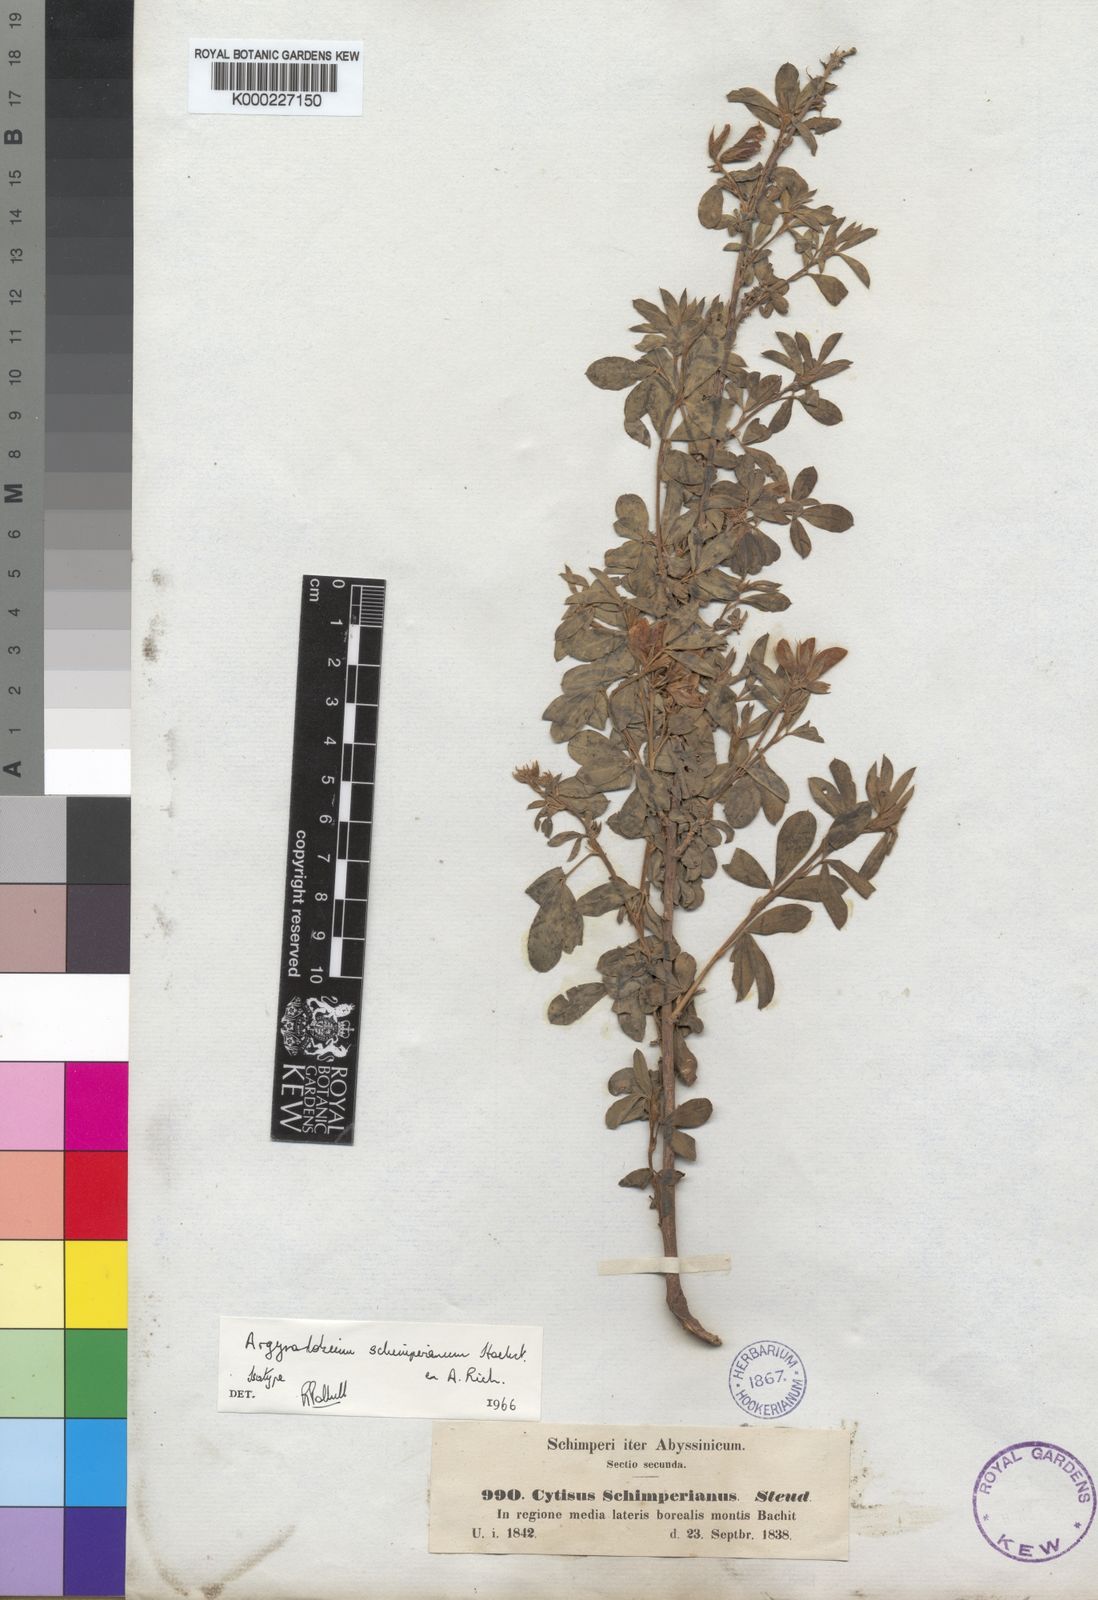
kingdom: Plantae
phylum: Tracheophyta
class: Magnoliopsida
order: Fabales
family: Fabaceae
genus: Argyrolobium
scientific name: Argyrolobium
